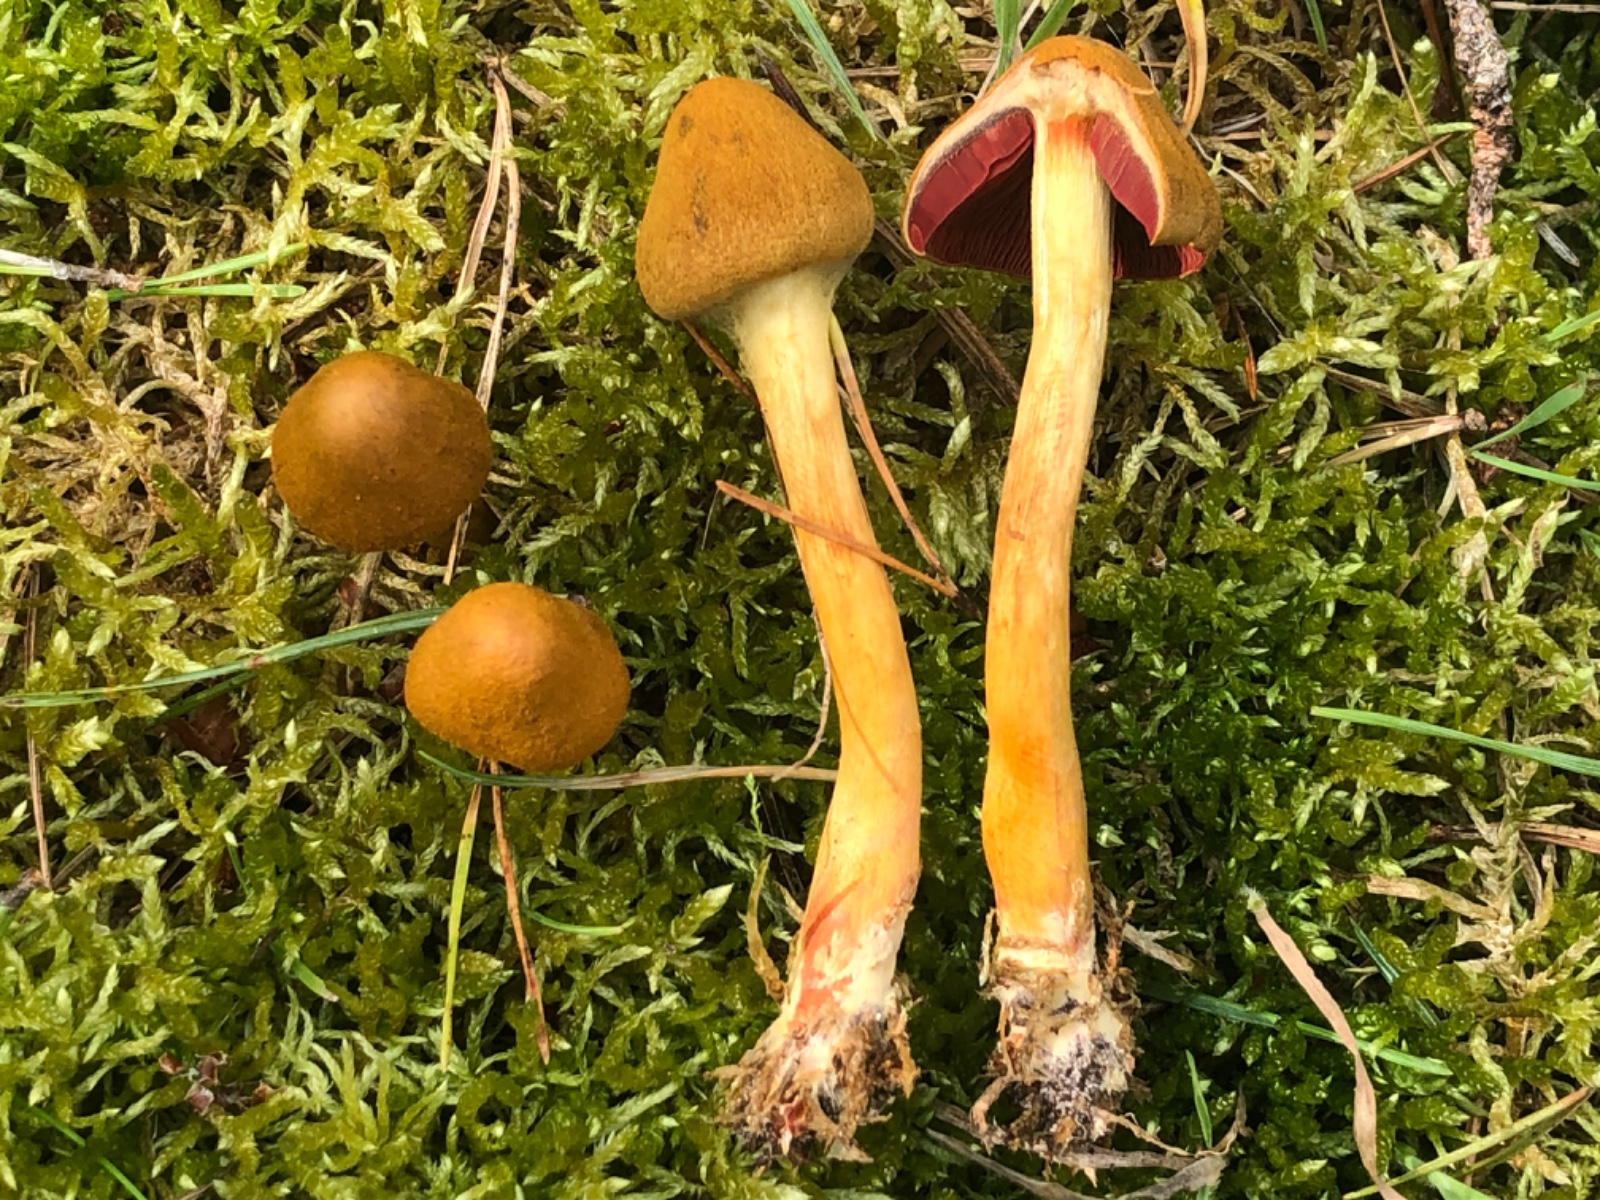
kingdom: Fungi
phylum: Basidiomycota
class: Agaricomycetes
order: Agaricales
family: Cortinariaceae
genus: Cortinarius
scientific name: Cortinarius
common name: cinnoberbladet slørhat
